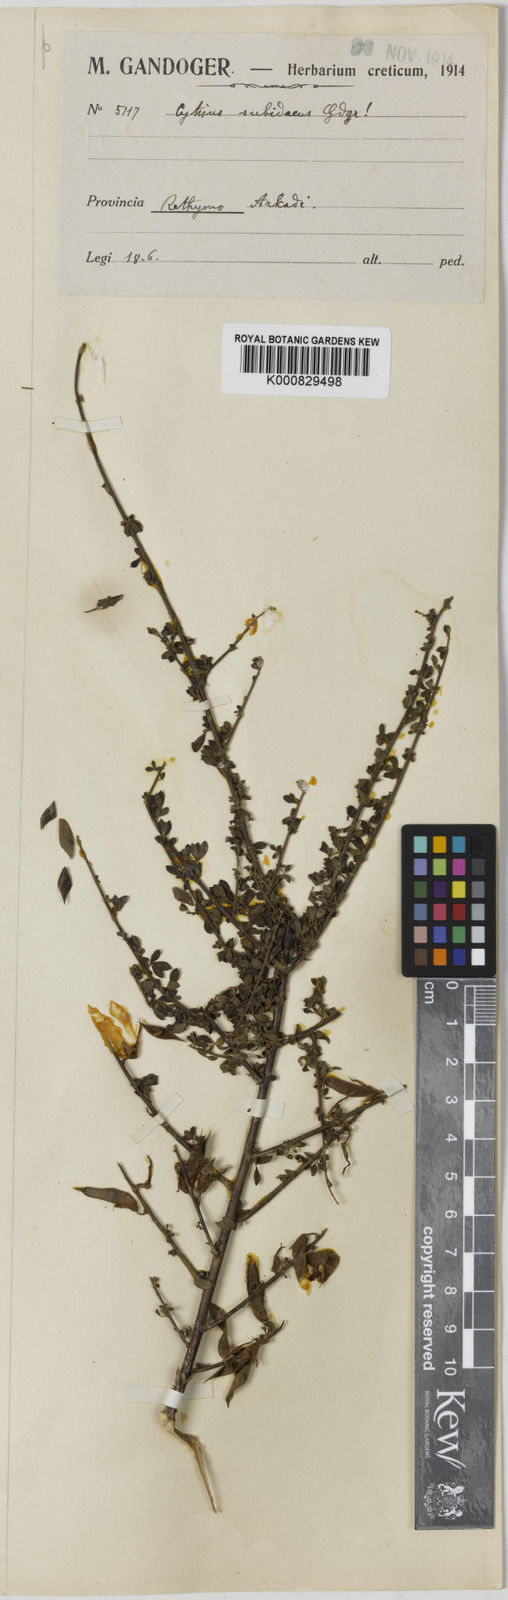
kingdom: Plantae
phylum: Tracheophyta
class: Magnoliopsida
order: Fabales
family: Fabaceae
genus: Chamaecytisus
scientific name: Chamaecytisus spinescens
